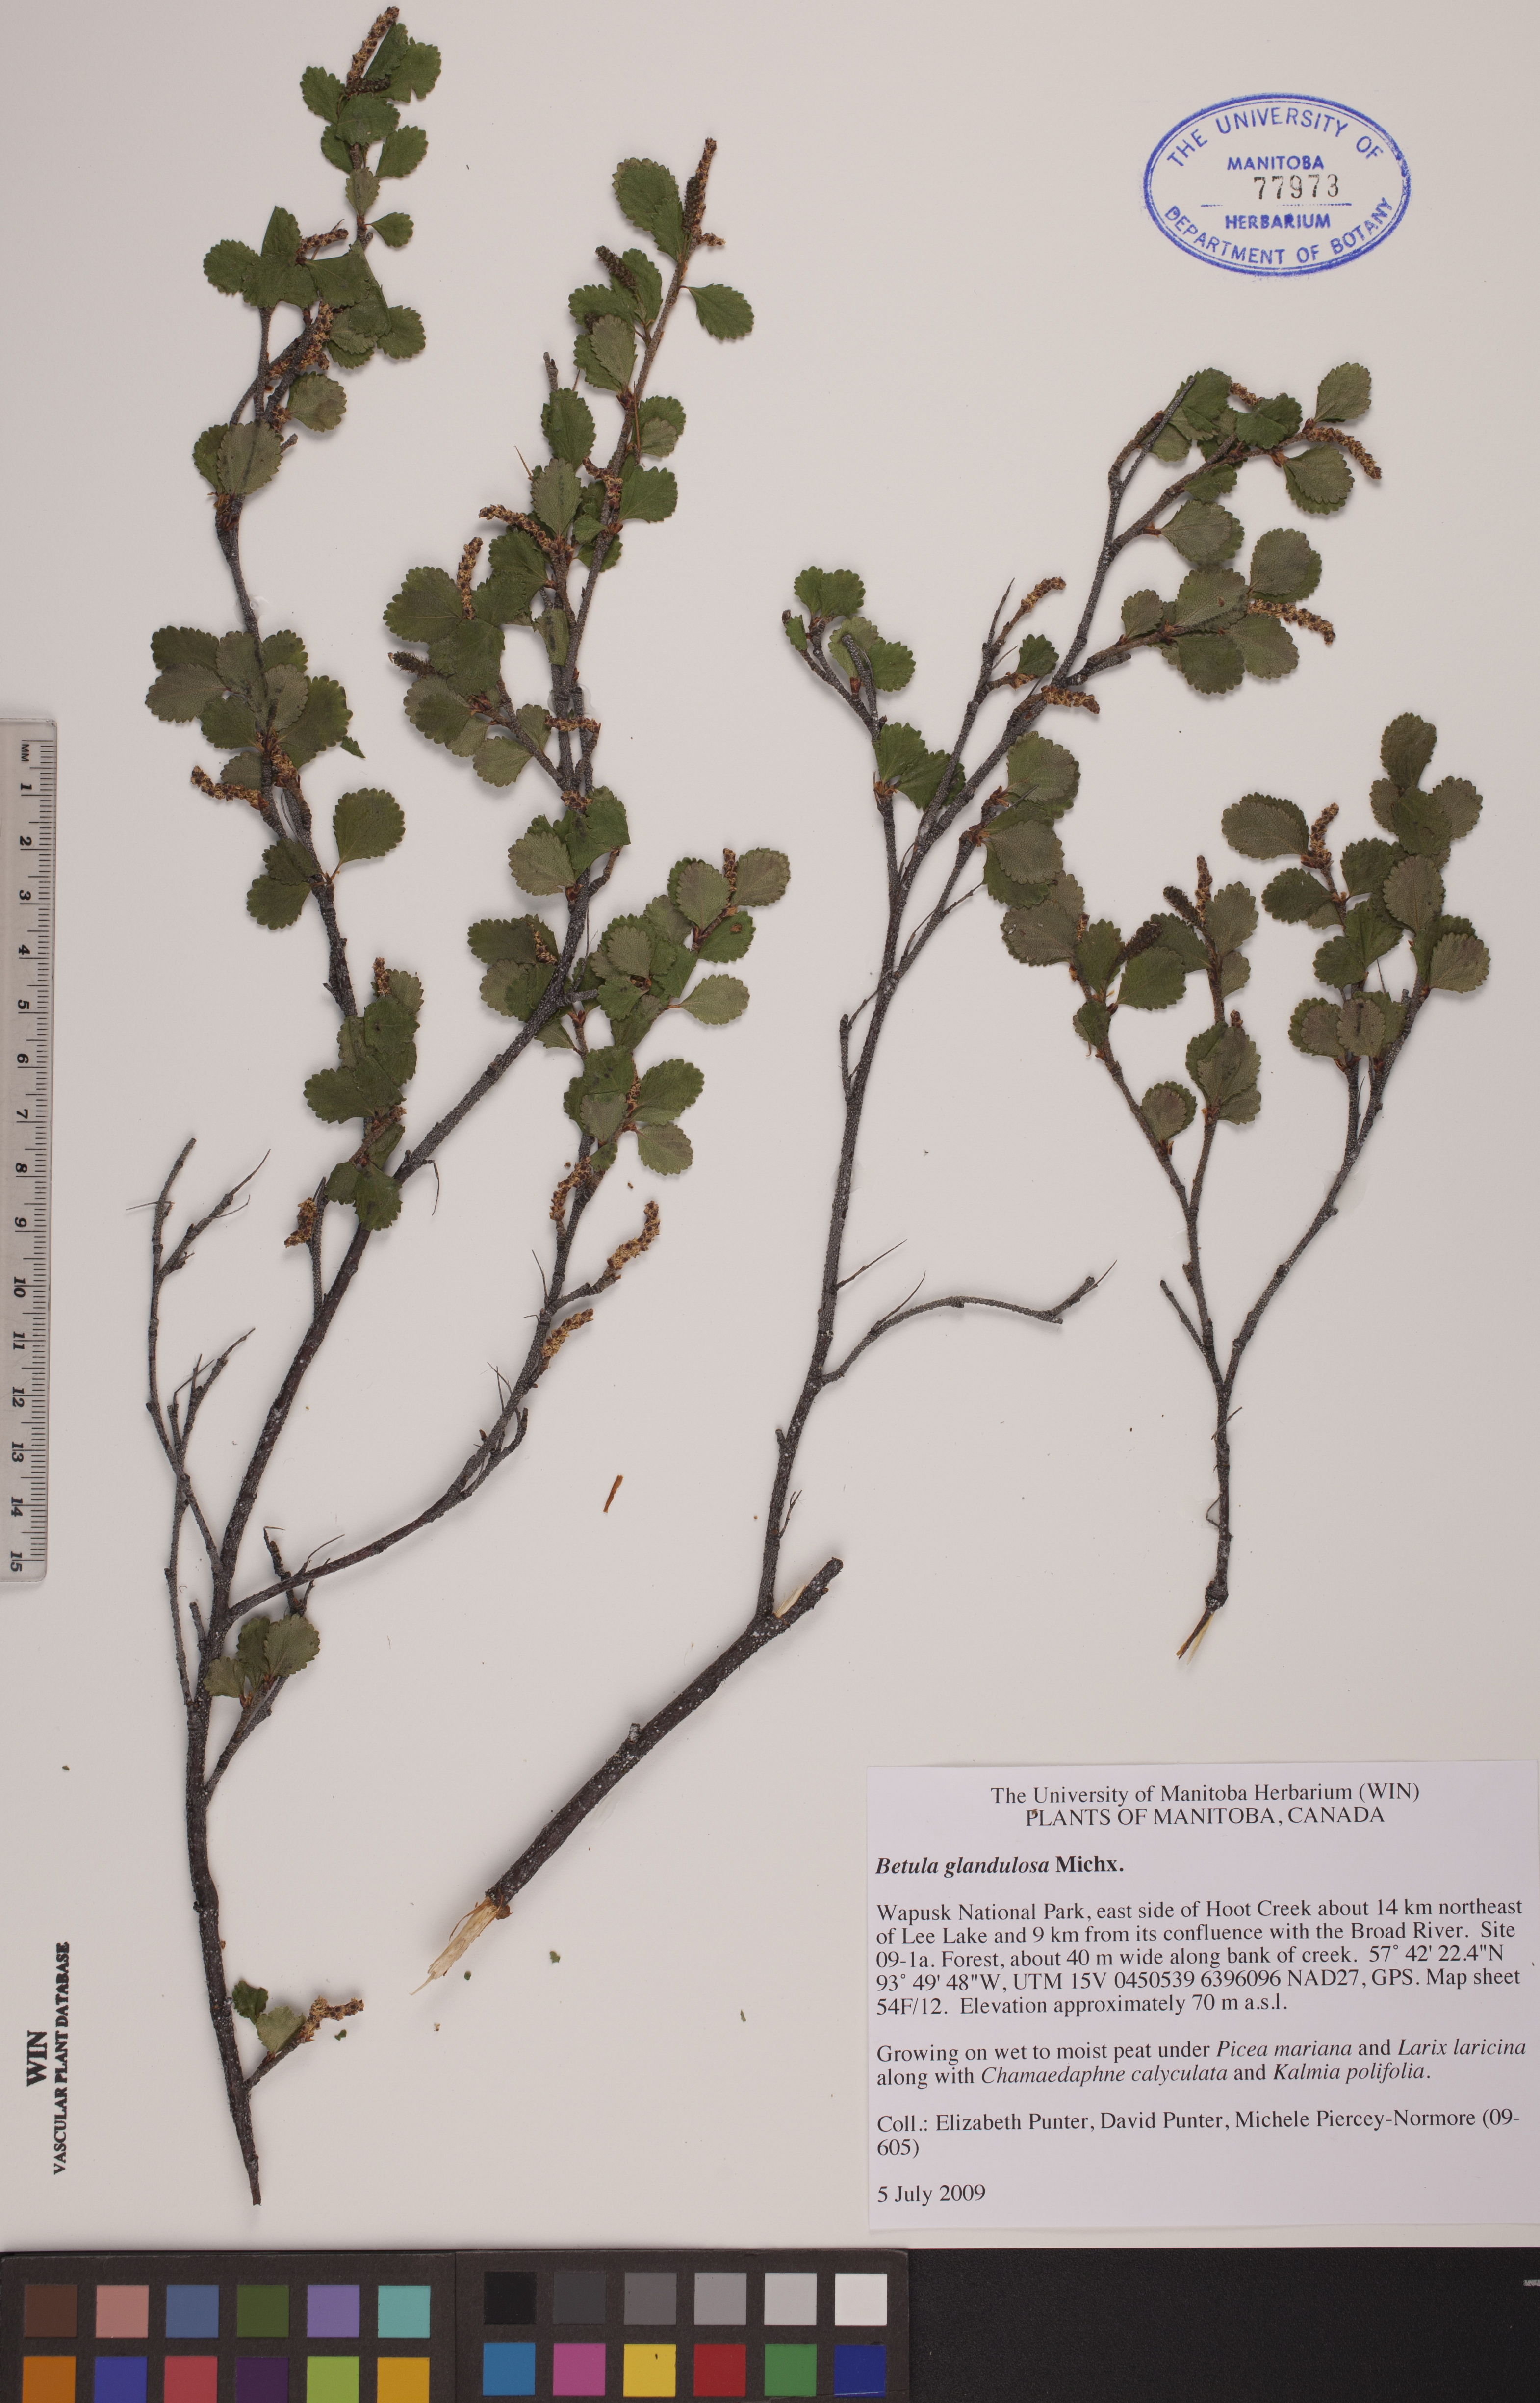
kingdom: Plantae
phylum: Tracheophyta
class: Magnoliopsida
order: Fagales
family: Betulaceae
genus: Betula
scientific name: Betula glandulosa
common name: Dwarf birch
